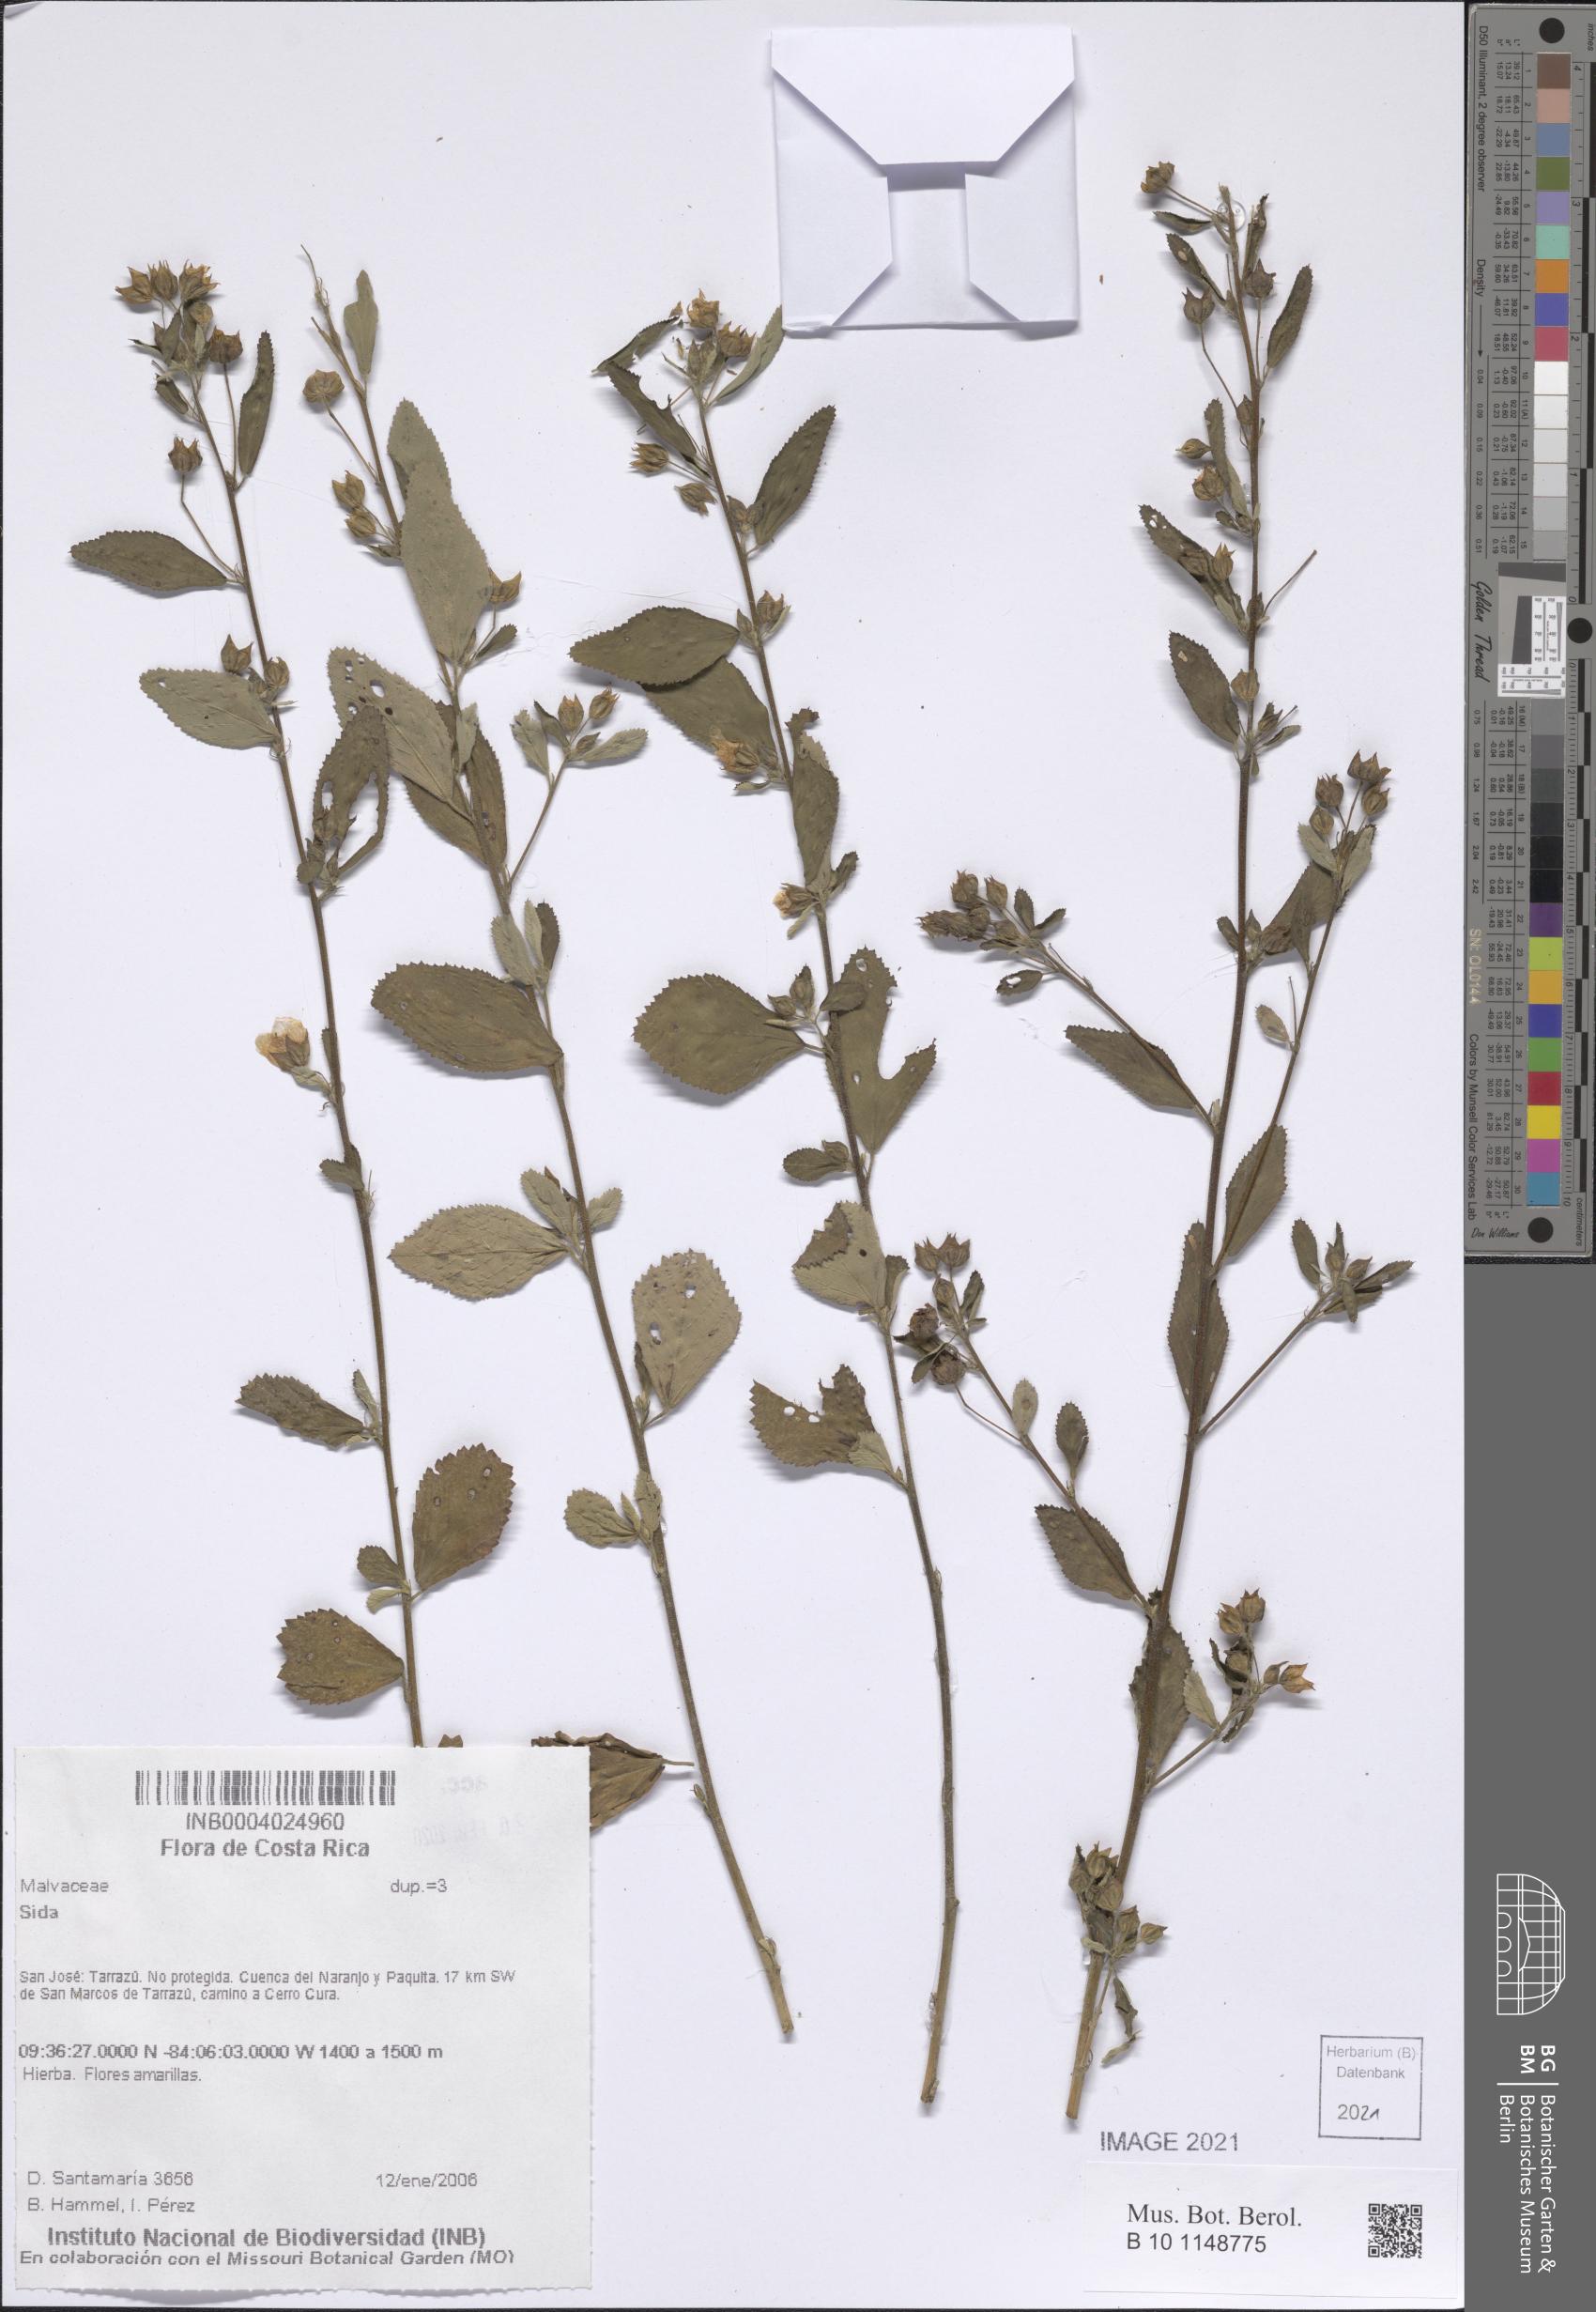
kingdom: Plantae
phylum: Tracheophyta
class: Magnoliopsida
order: Malvales
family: Malvaceae
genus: Sida
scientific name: Sida
